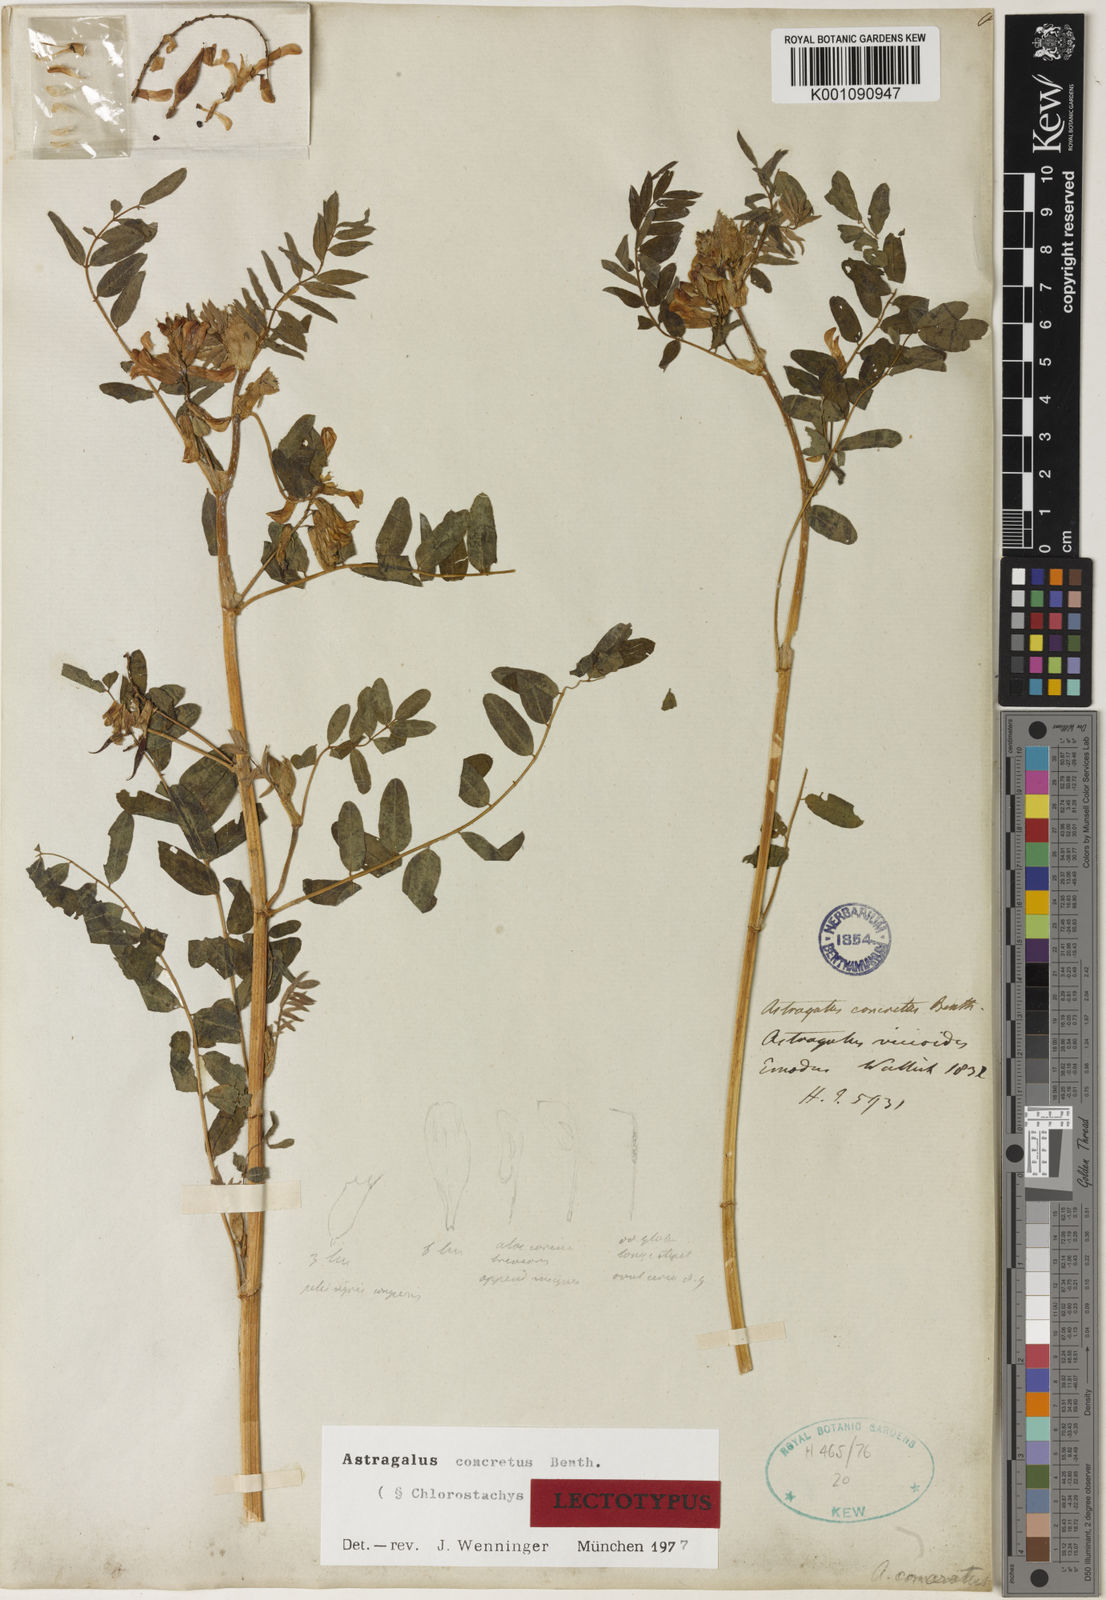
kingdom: Plantae
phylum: Tracheophyta
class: Magnoliopsida
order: Fabales
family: Fabaceae
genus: Astragalus
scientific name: Astragalus
